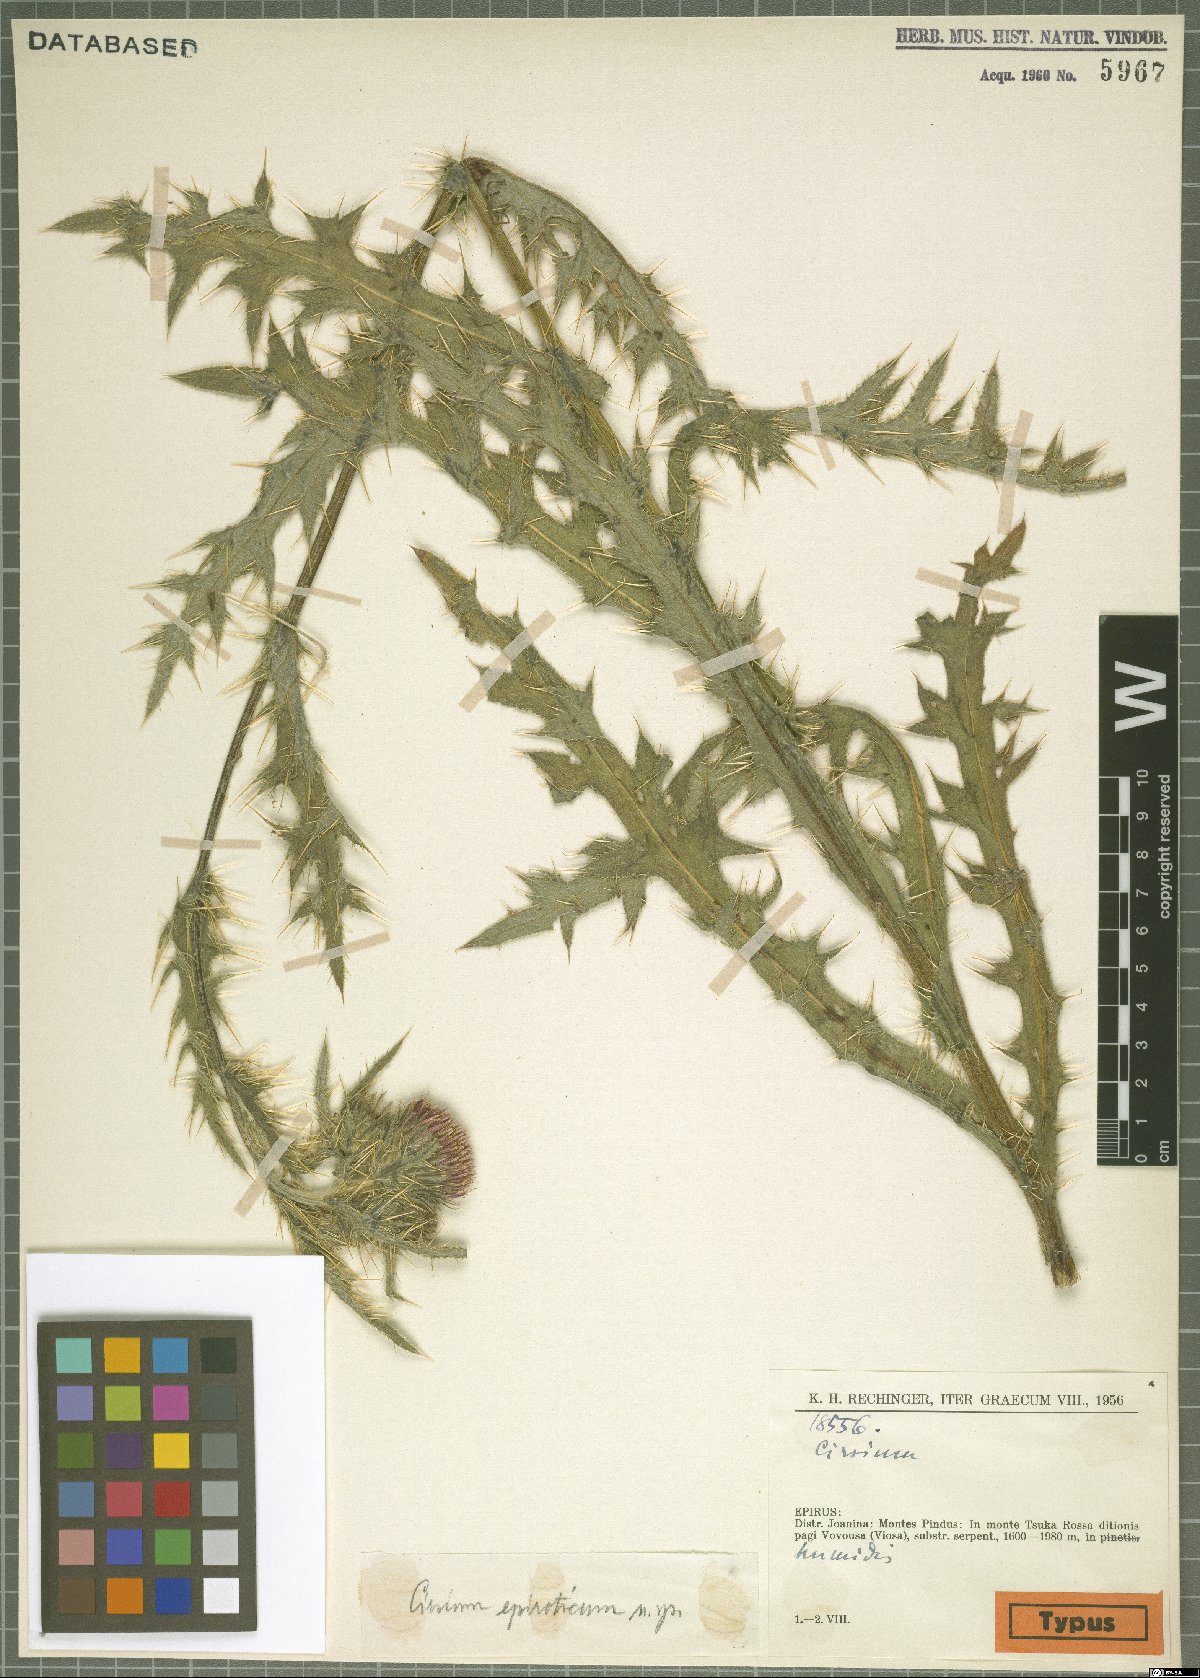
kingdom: Plantae
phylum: Tracheophyta
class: Magnoliopsida
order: Asterales
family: Asteraceae
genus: Cirsium
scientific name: Cirsium epiroticum
